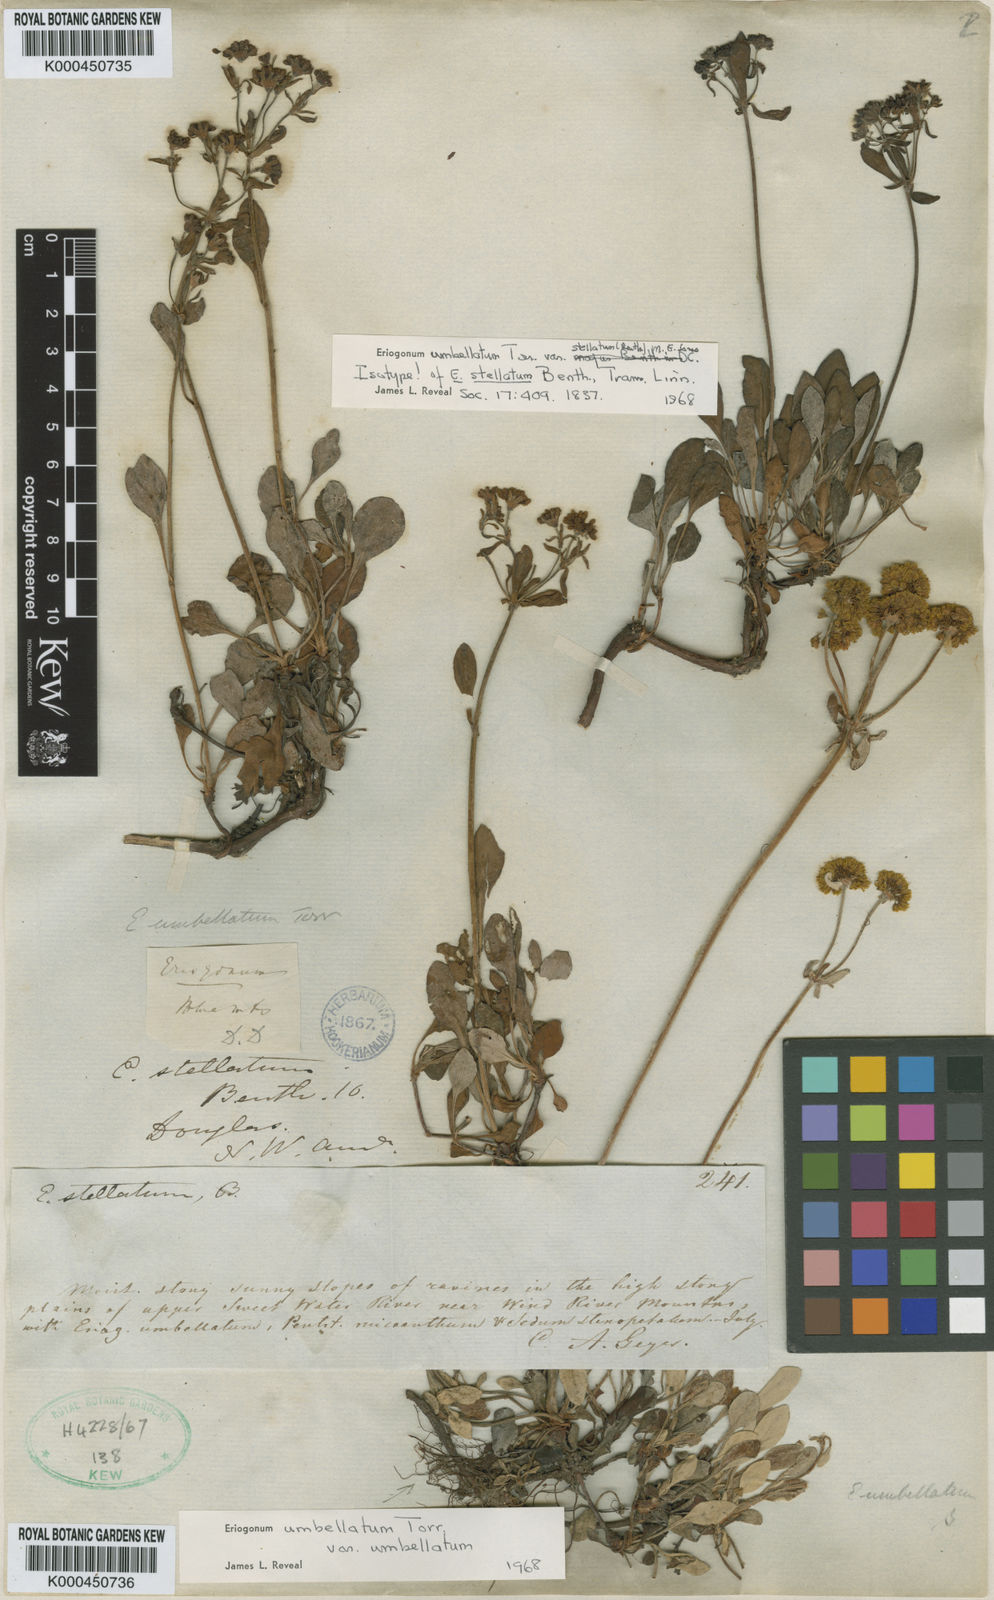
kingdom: Plantae
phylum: Tracheophyta
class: Magnoliopsida
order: Caryophyllales
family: Polygonaceae
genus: Eriogonum
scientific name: Eriogonum umbellatum
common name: Sulfur-buckwheat
